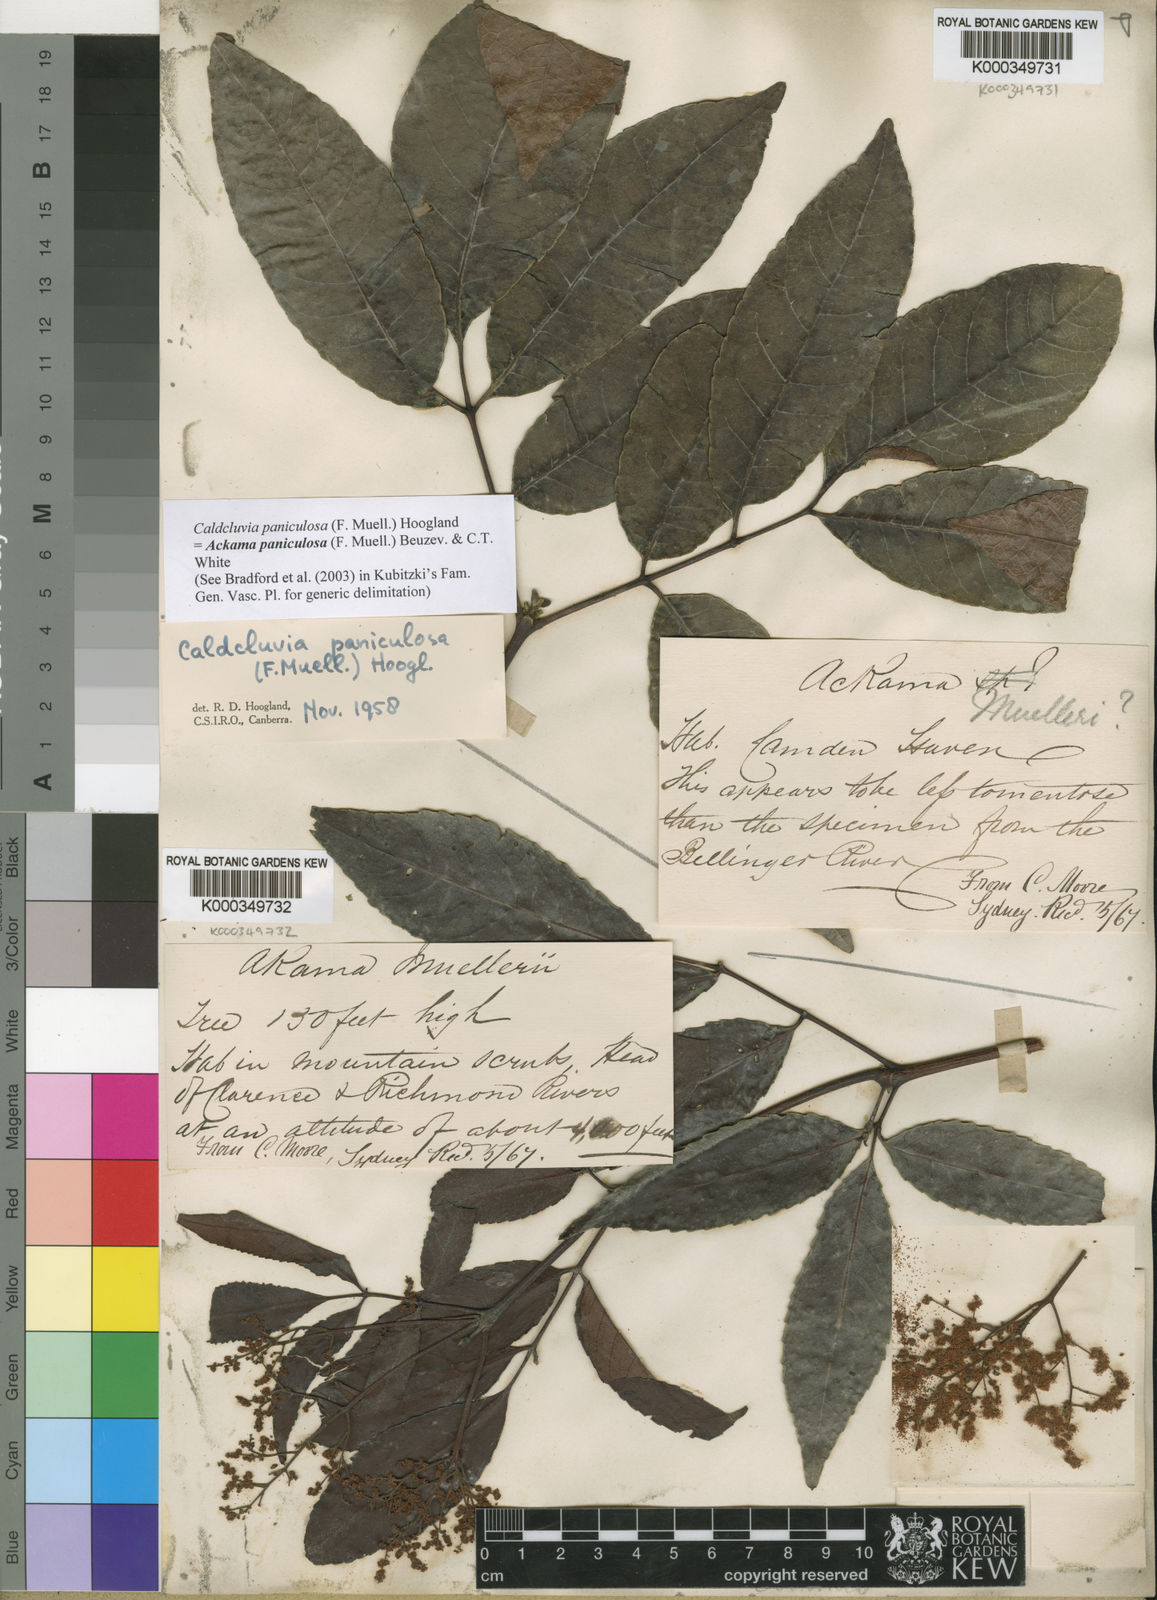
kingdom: Plantae
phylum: Tracheophyta
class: Magnoliopsida
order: Oxalidales
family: Cunoniaceae
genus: Ackama
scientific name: Ackama paniculosa
